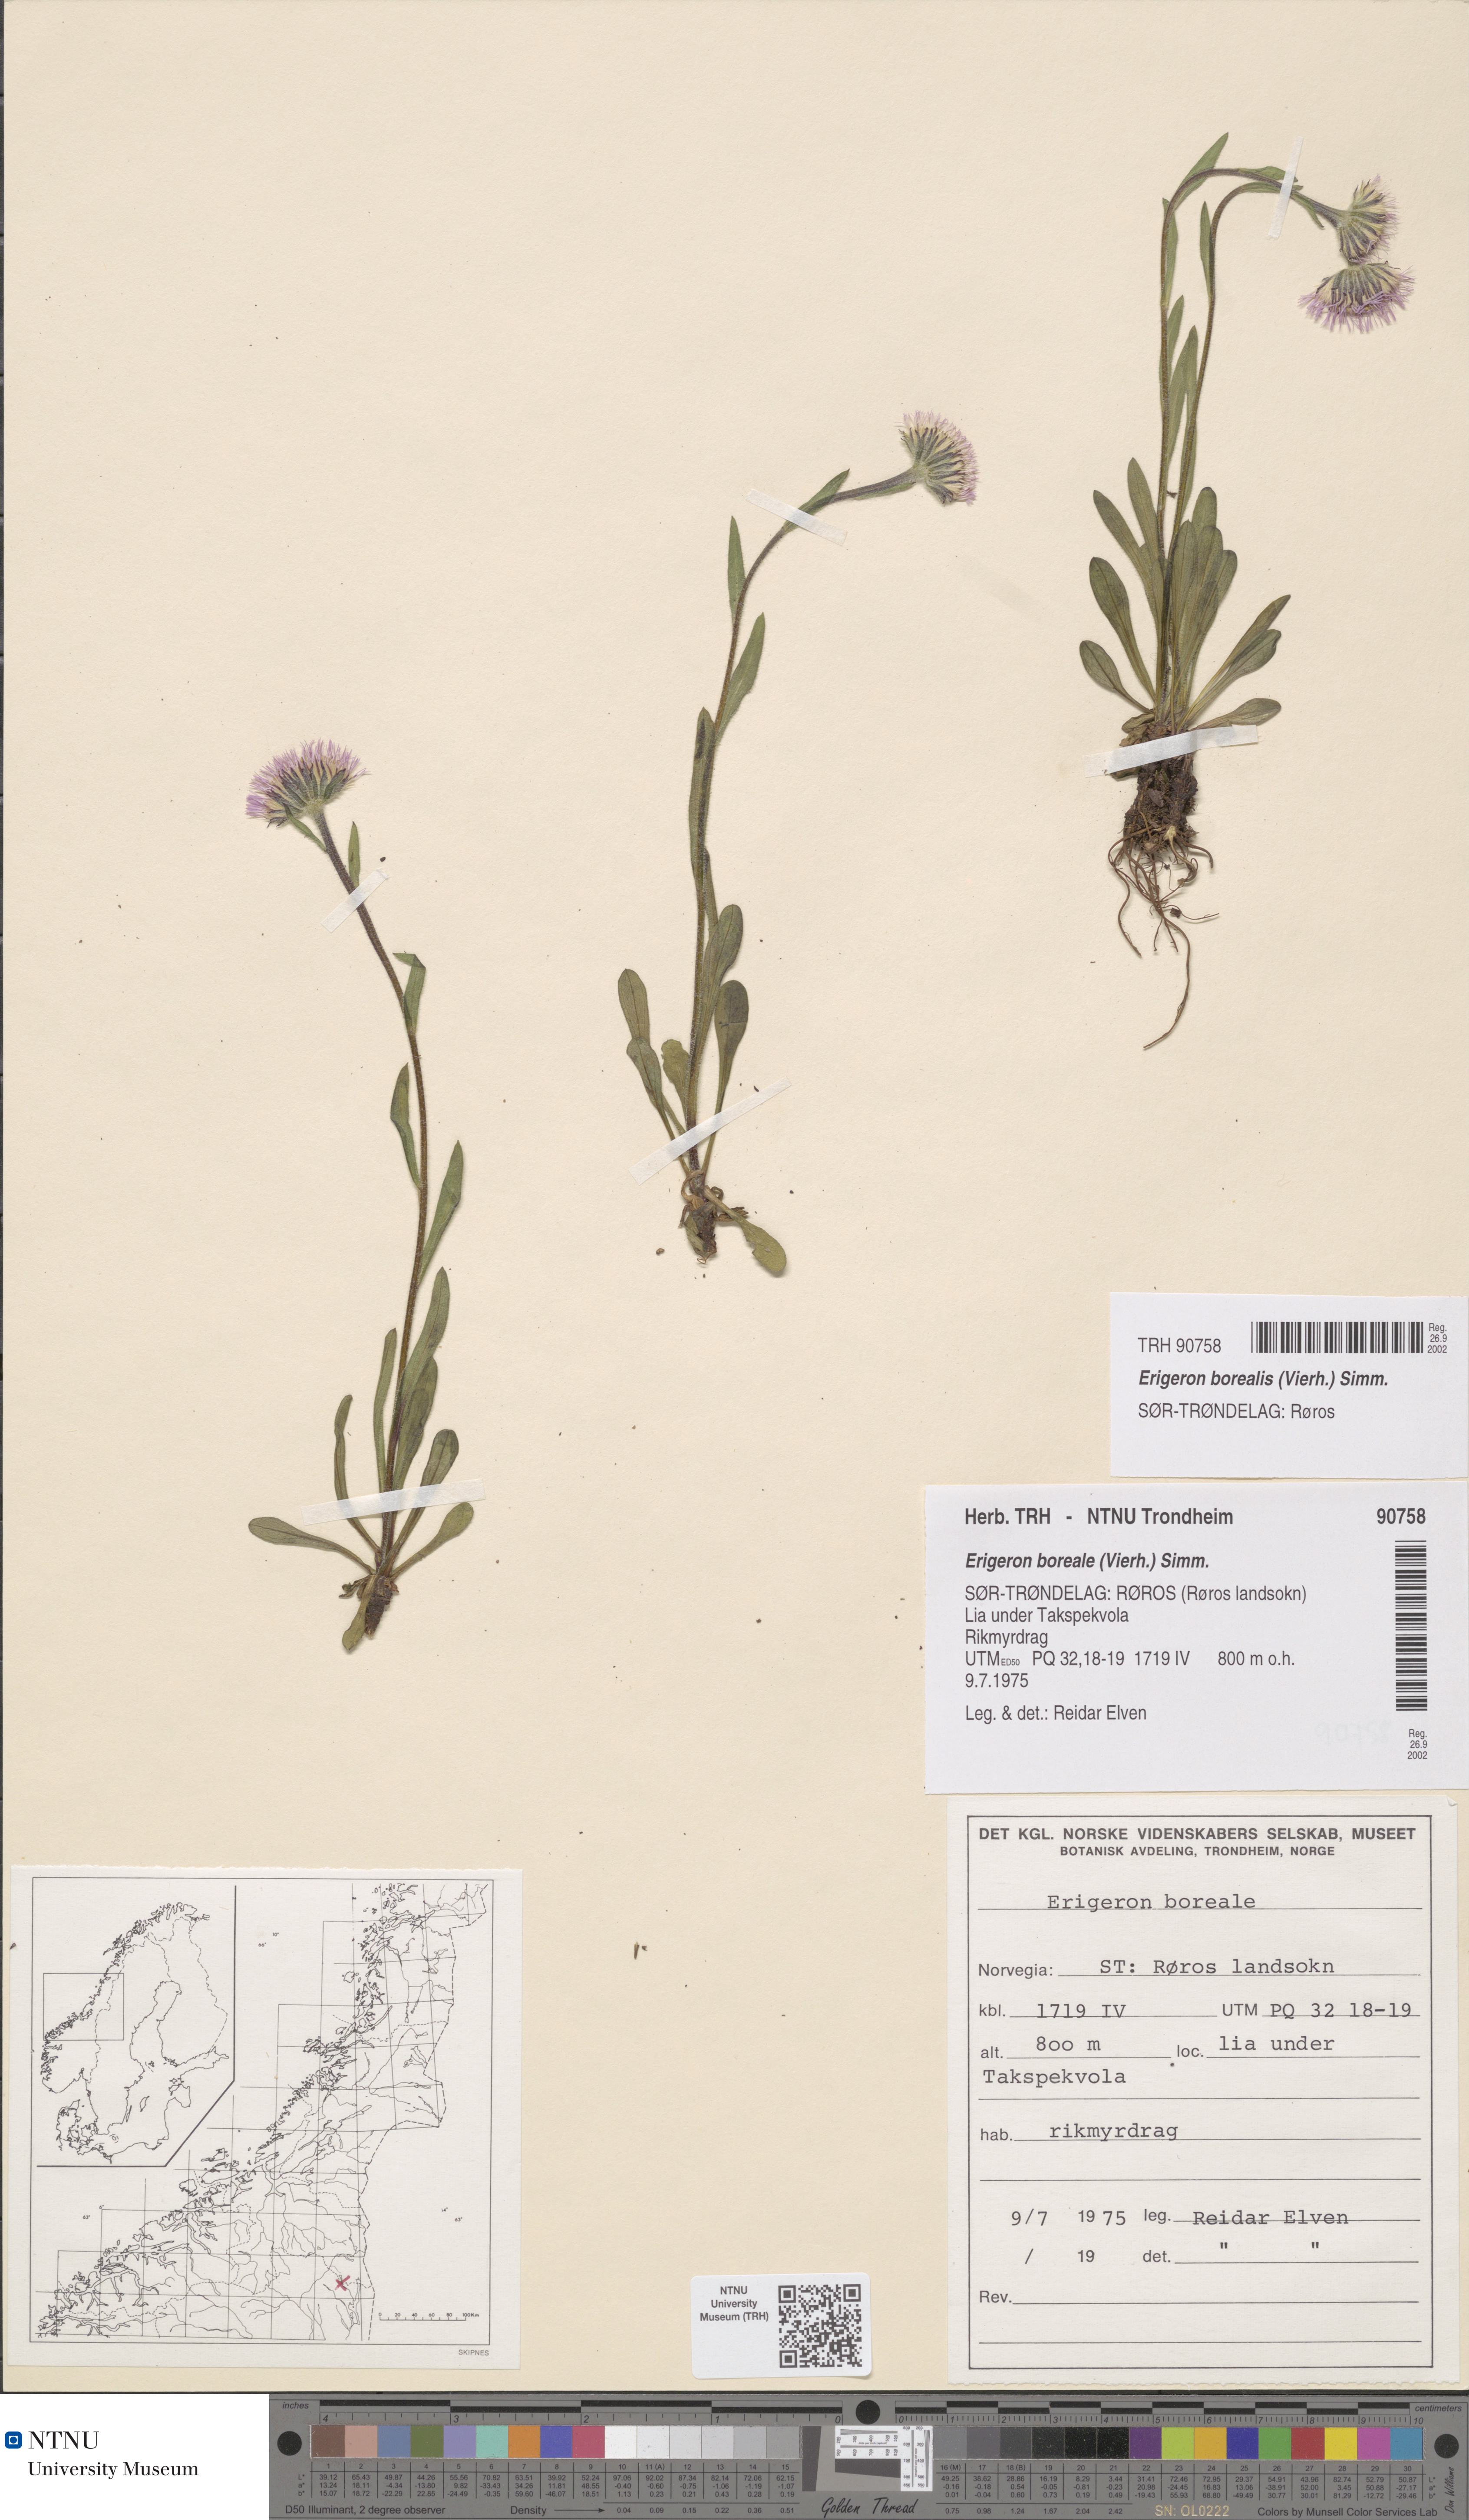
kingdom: Plantae
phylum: Tracheophyta
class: Magnoliopsida
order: Asterales
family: Asteraceae
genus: Erigeron
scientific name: Erigeron borealis
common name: Alpine fleabane
